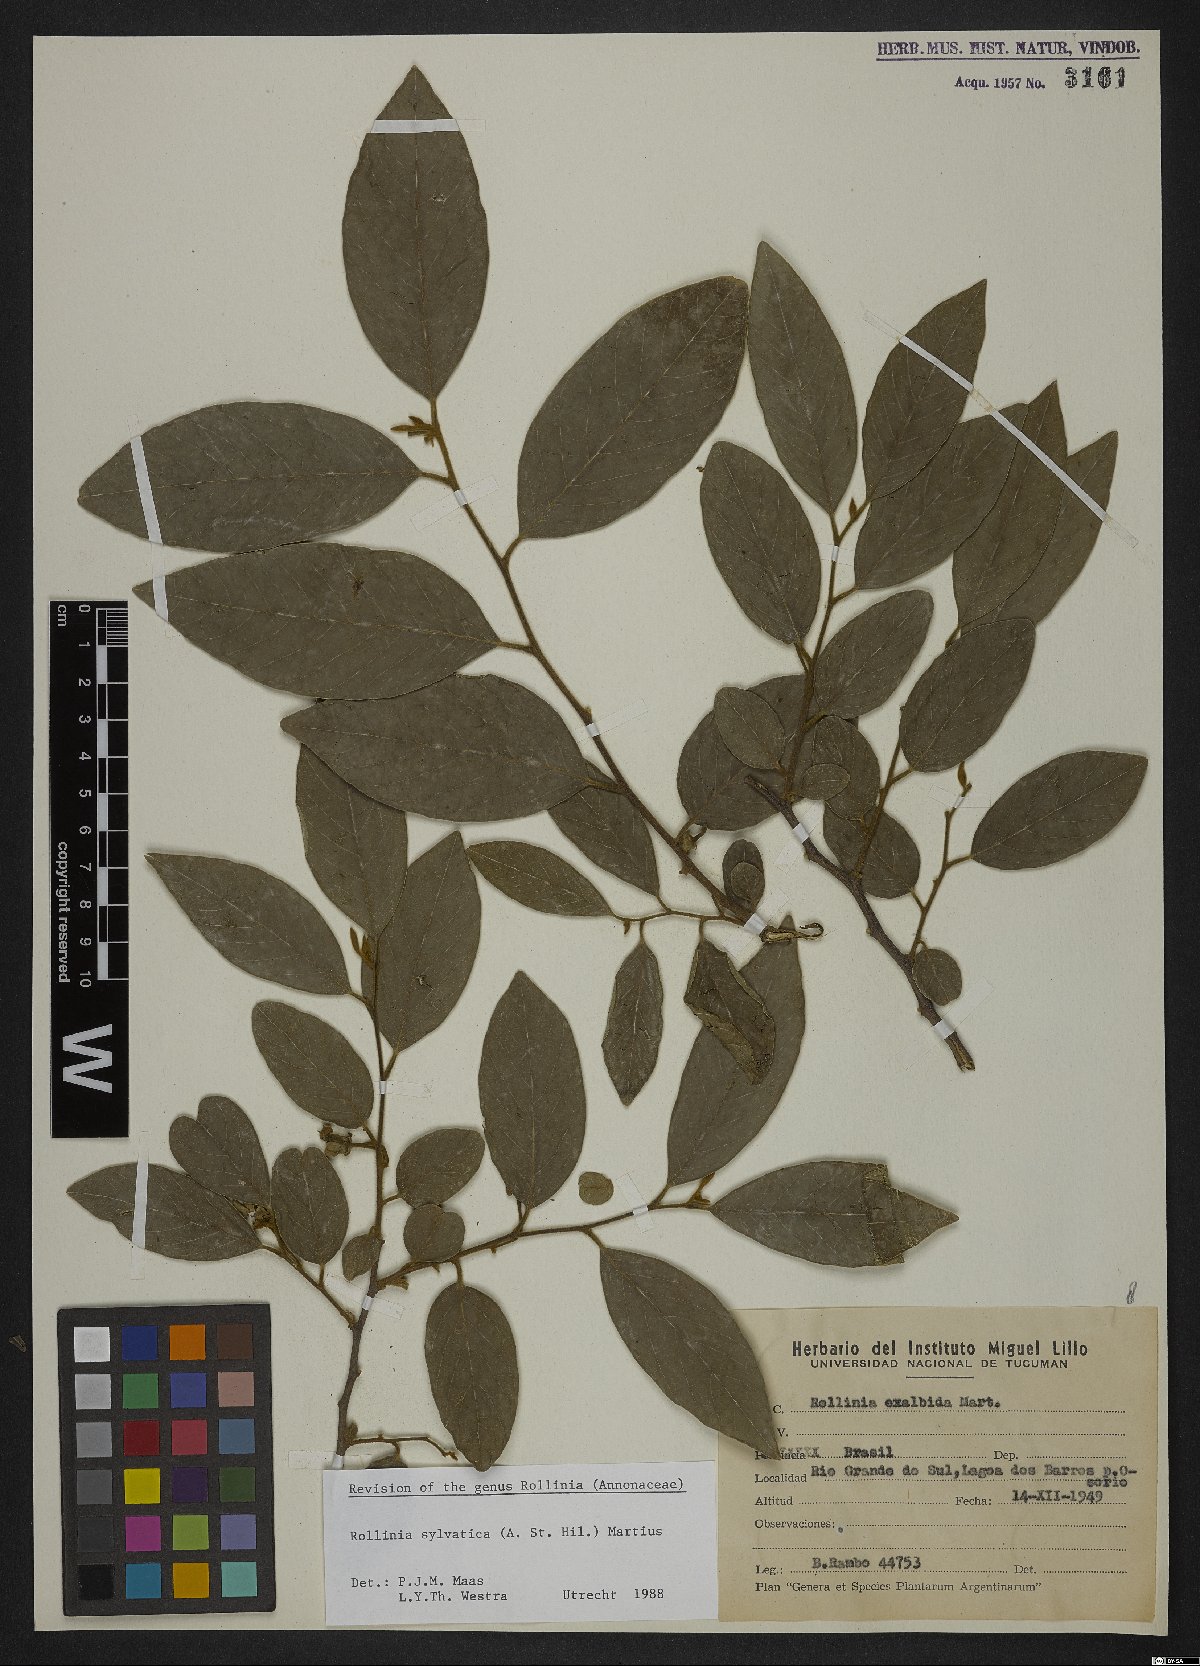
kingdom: Plantae
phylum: Tracheophyta
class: Magnoliopsida
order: Magnoliales
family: Annonaceae
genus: Annona
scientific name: Annona sylvatica
